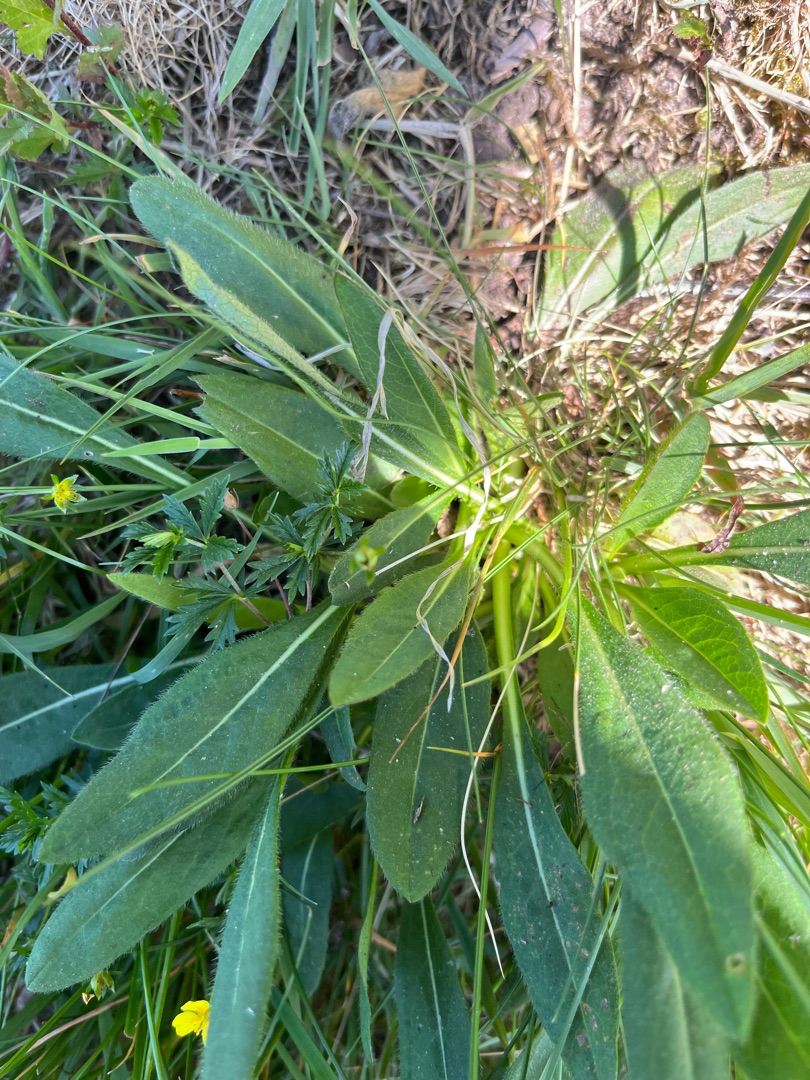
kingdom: Plantae
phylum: Tracheophyta
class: Magnoliopsida
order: Dipsacales
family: Caprifoliaceae
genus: Succisa
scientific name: Succisa pratensis
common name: Djævelsbid
